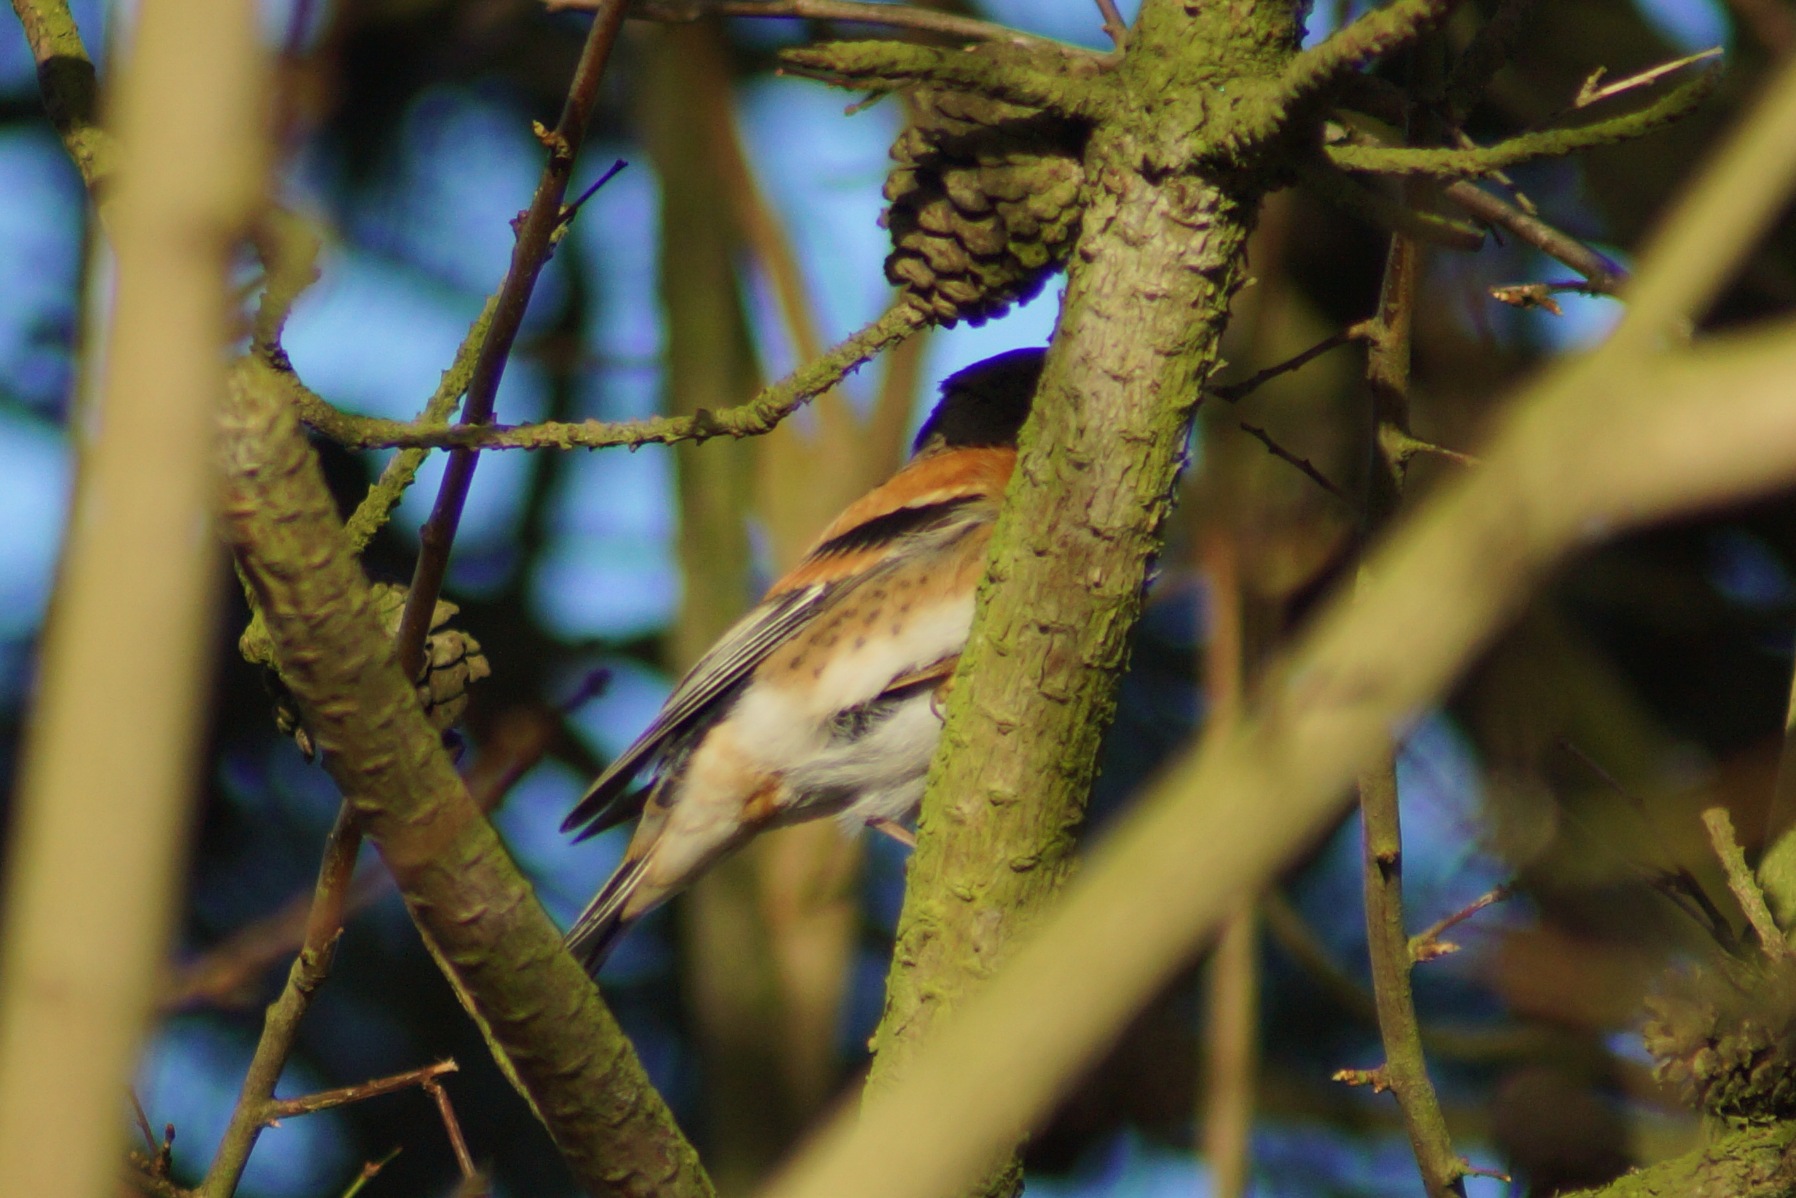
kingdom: Animalia
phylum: Chordata
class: Aves
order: Passeriformes
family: Fringillidae
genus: Fringilla
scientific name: Fringilla montifringilla
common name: Kvækerfinke
